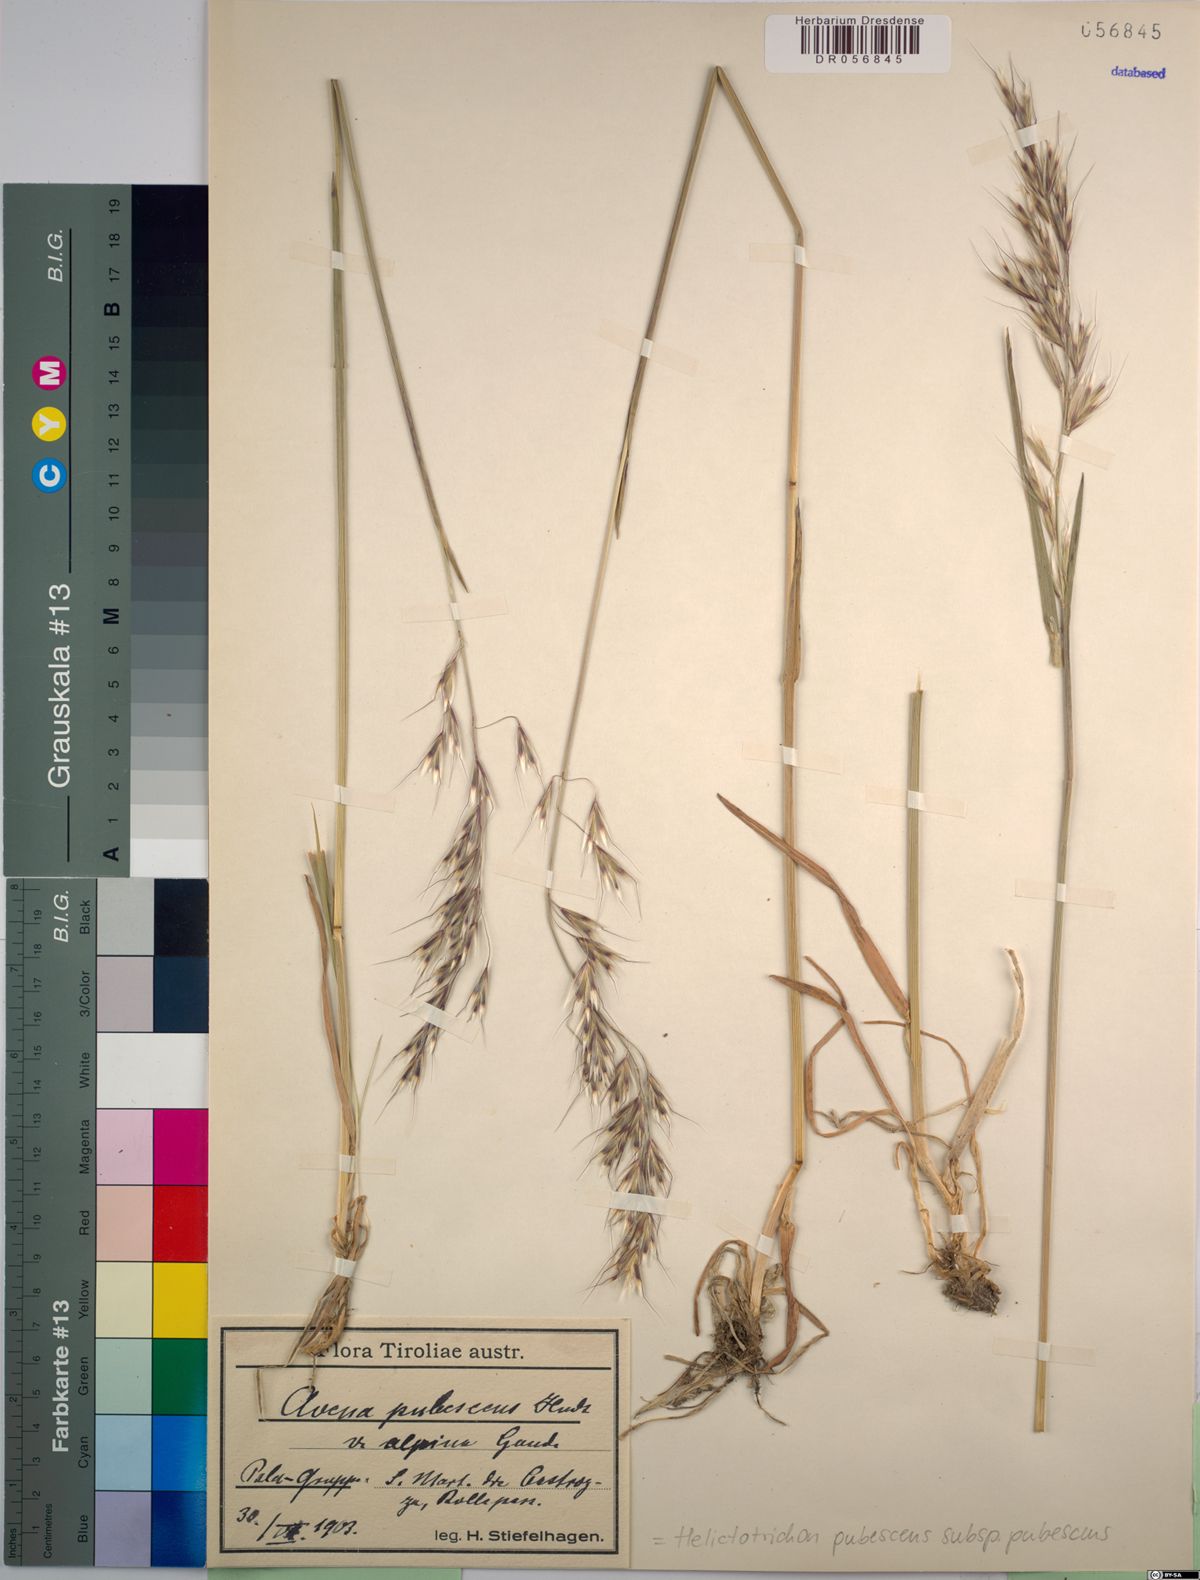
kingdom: Plantae
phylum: Tracheophyta
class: Liliopsida
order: Poales
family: Poaceae
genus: Avenula
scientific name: Avenula pubescens
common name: Downy alpine oatgrass
